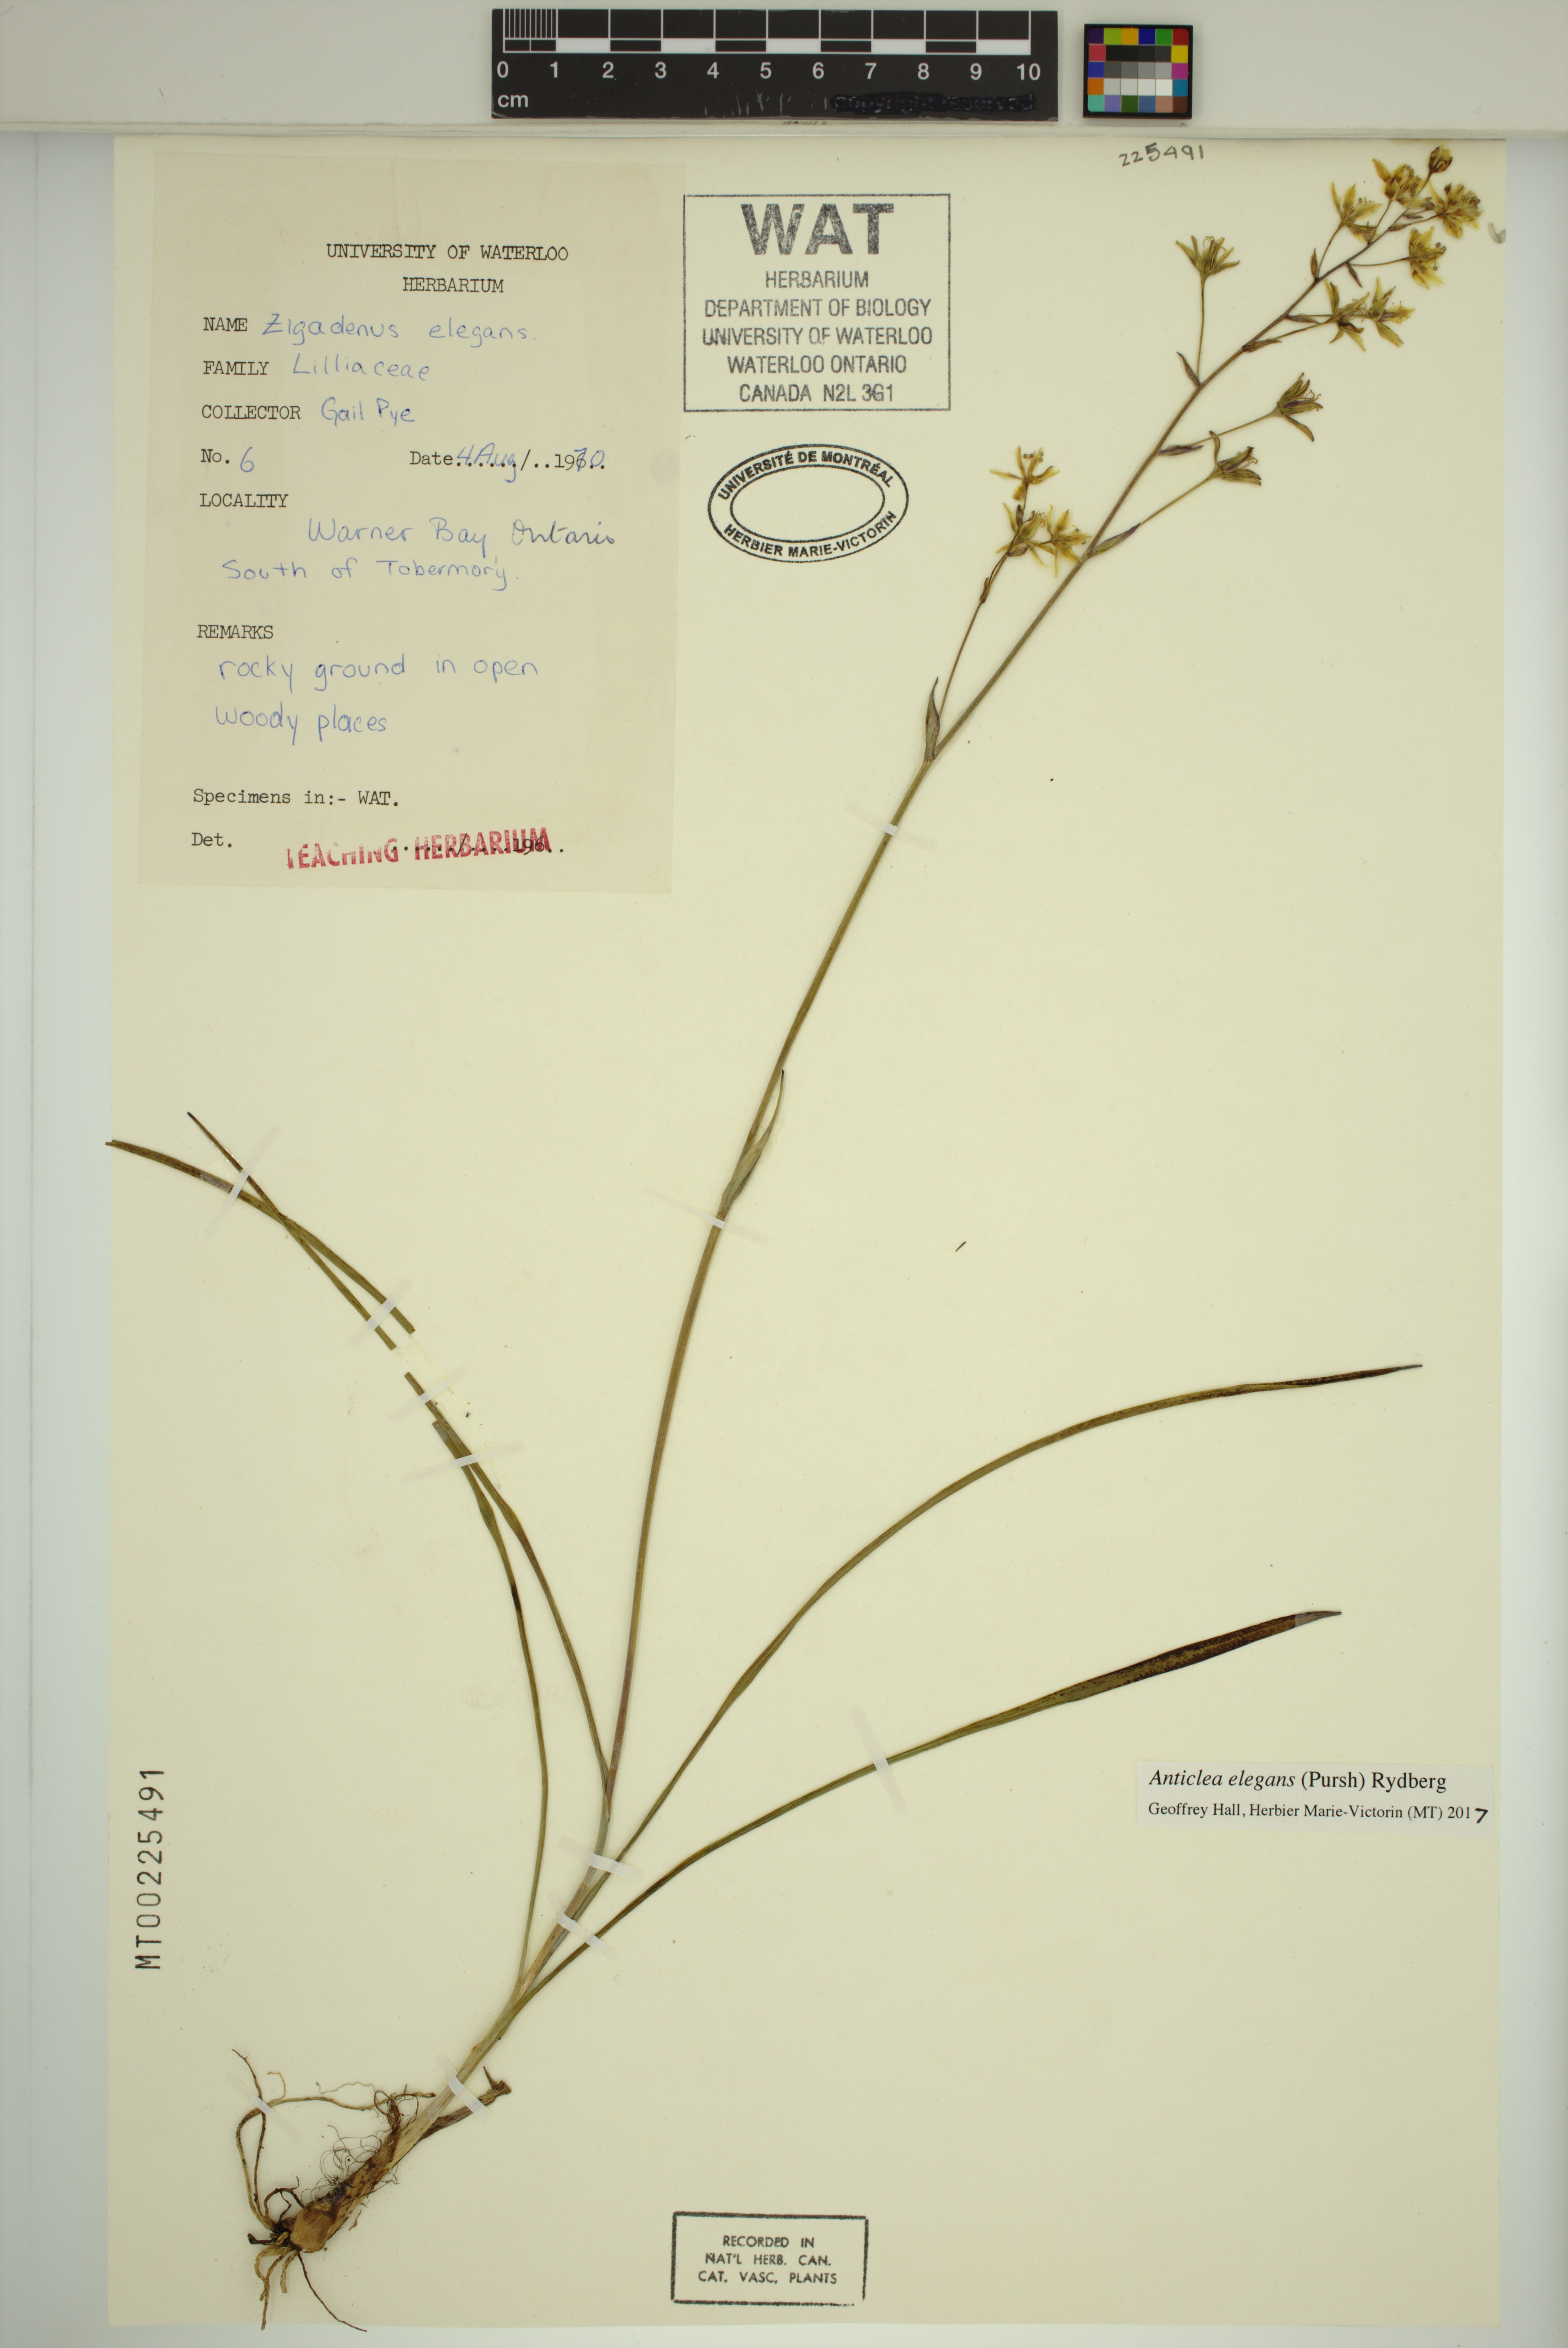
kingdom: Plantae
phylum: Tracheophyta
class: Liliopsida
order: Liliales
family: Melanthiaceae
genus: Anticlea
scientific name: Anticlea elegans
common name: Mountain death camas
